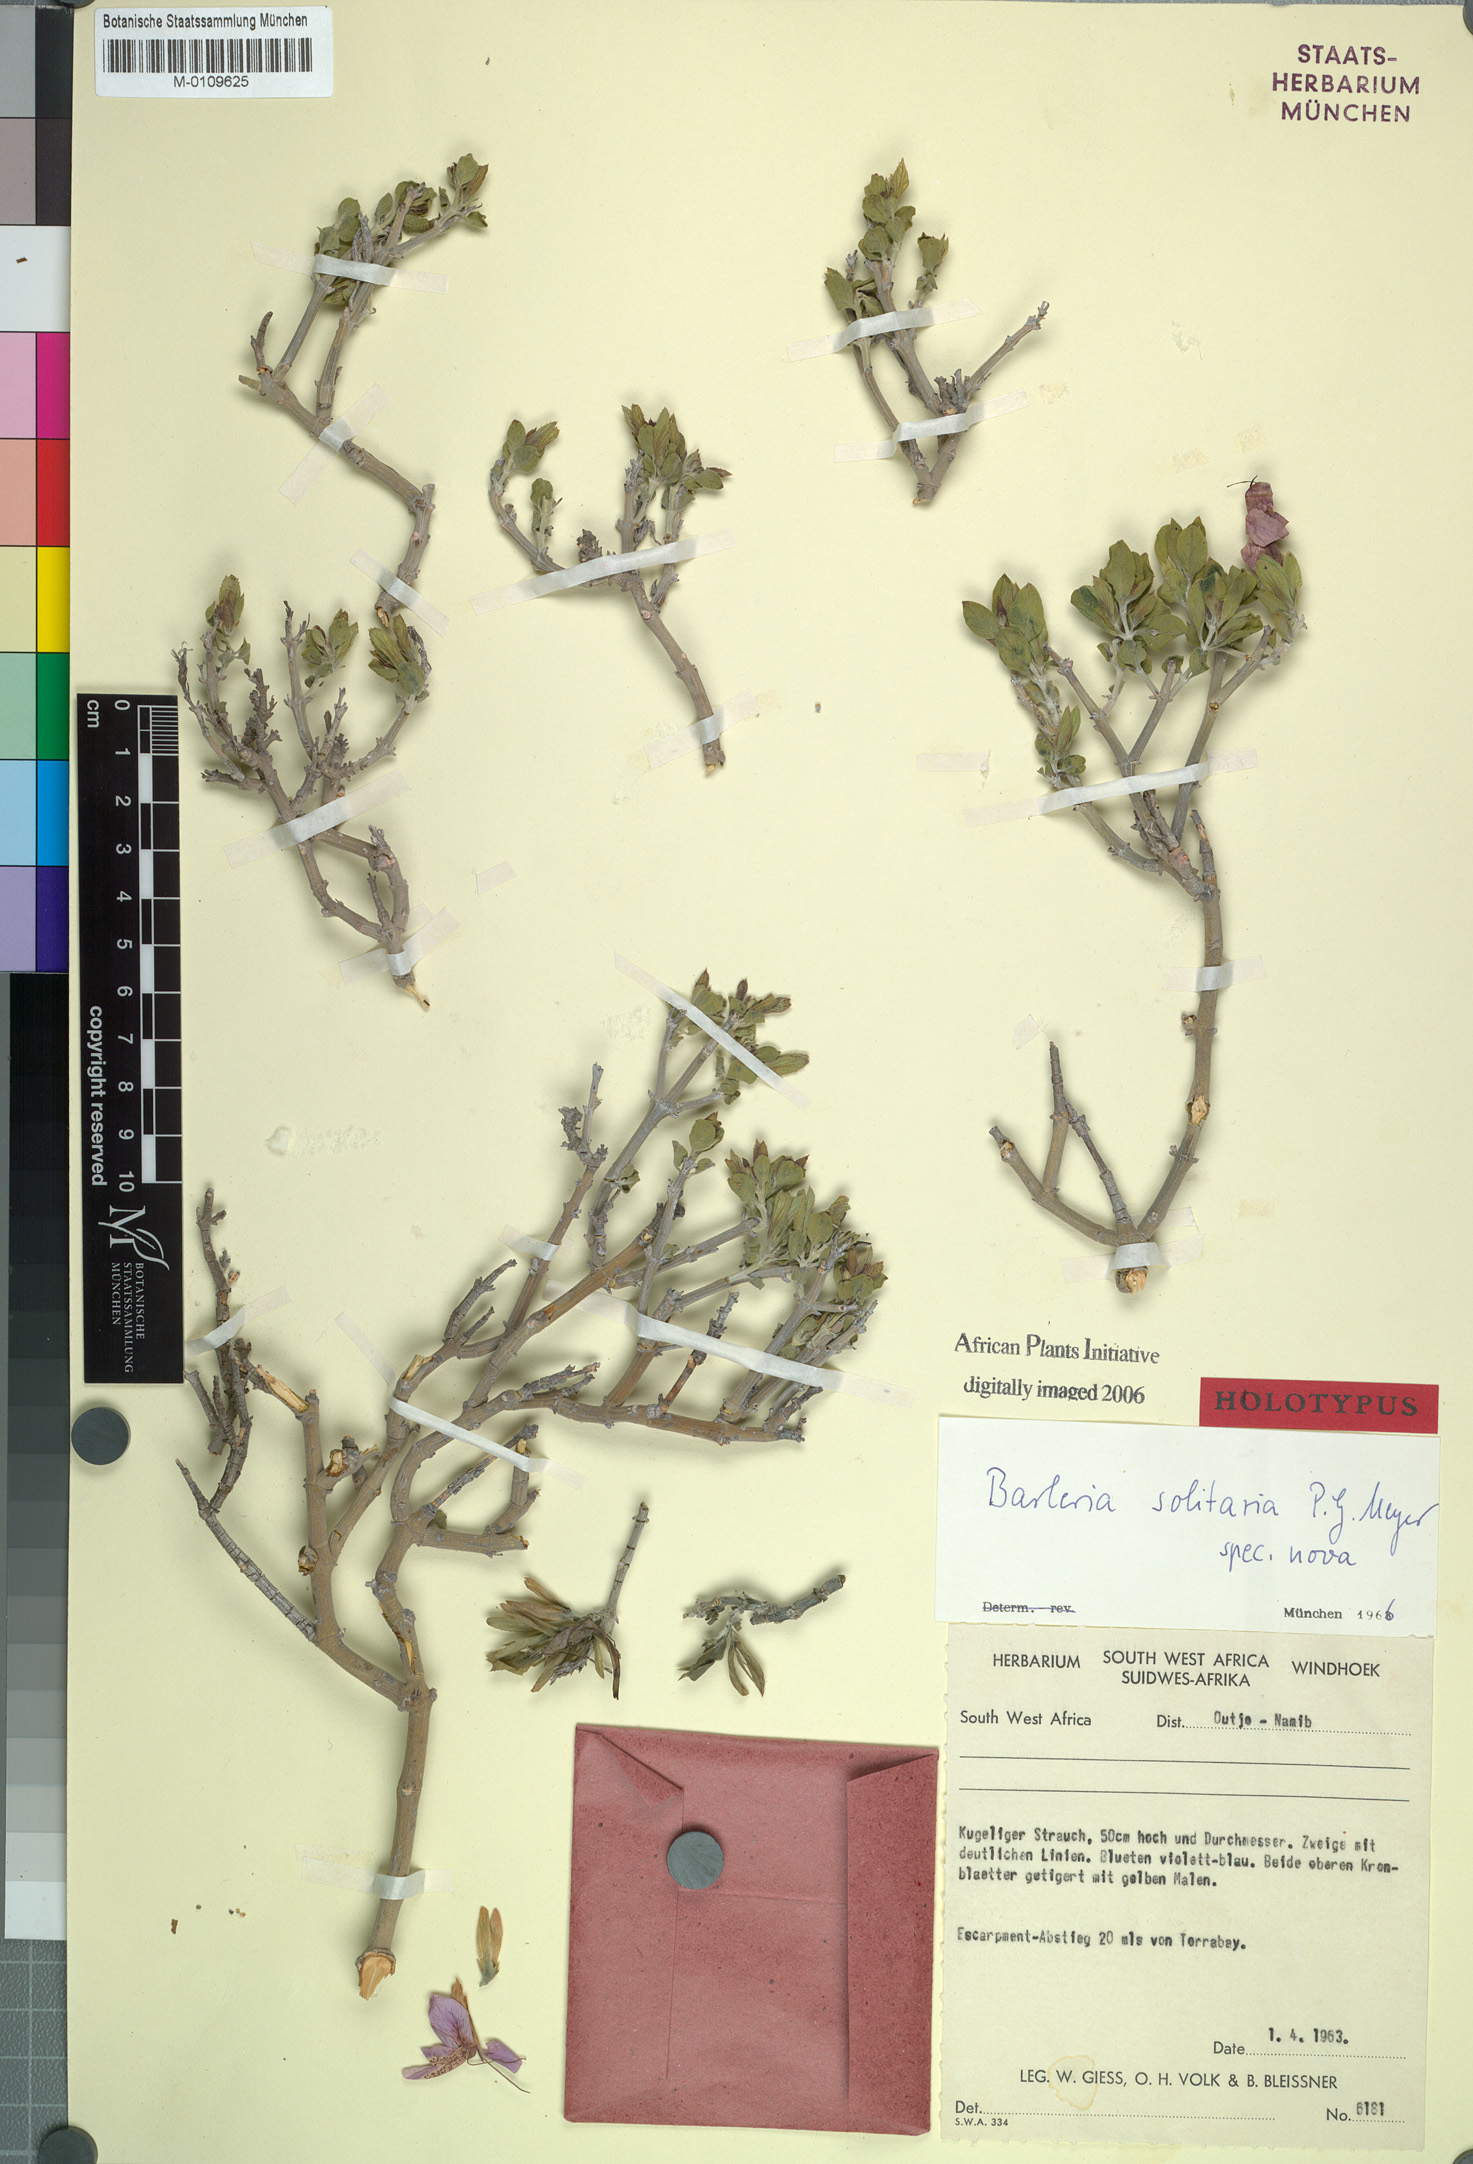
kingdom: Plantae
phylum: Tracheophyta
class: Magnoliopsida
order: Lamiales
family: Acanthaceae
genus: Barleria
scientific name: Barleria solitaria
